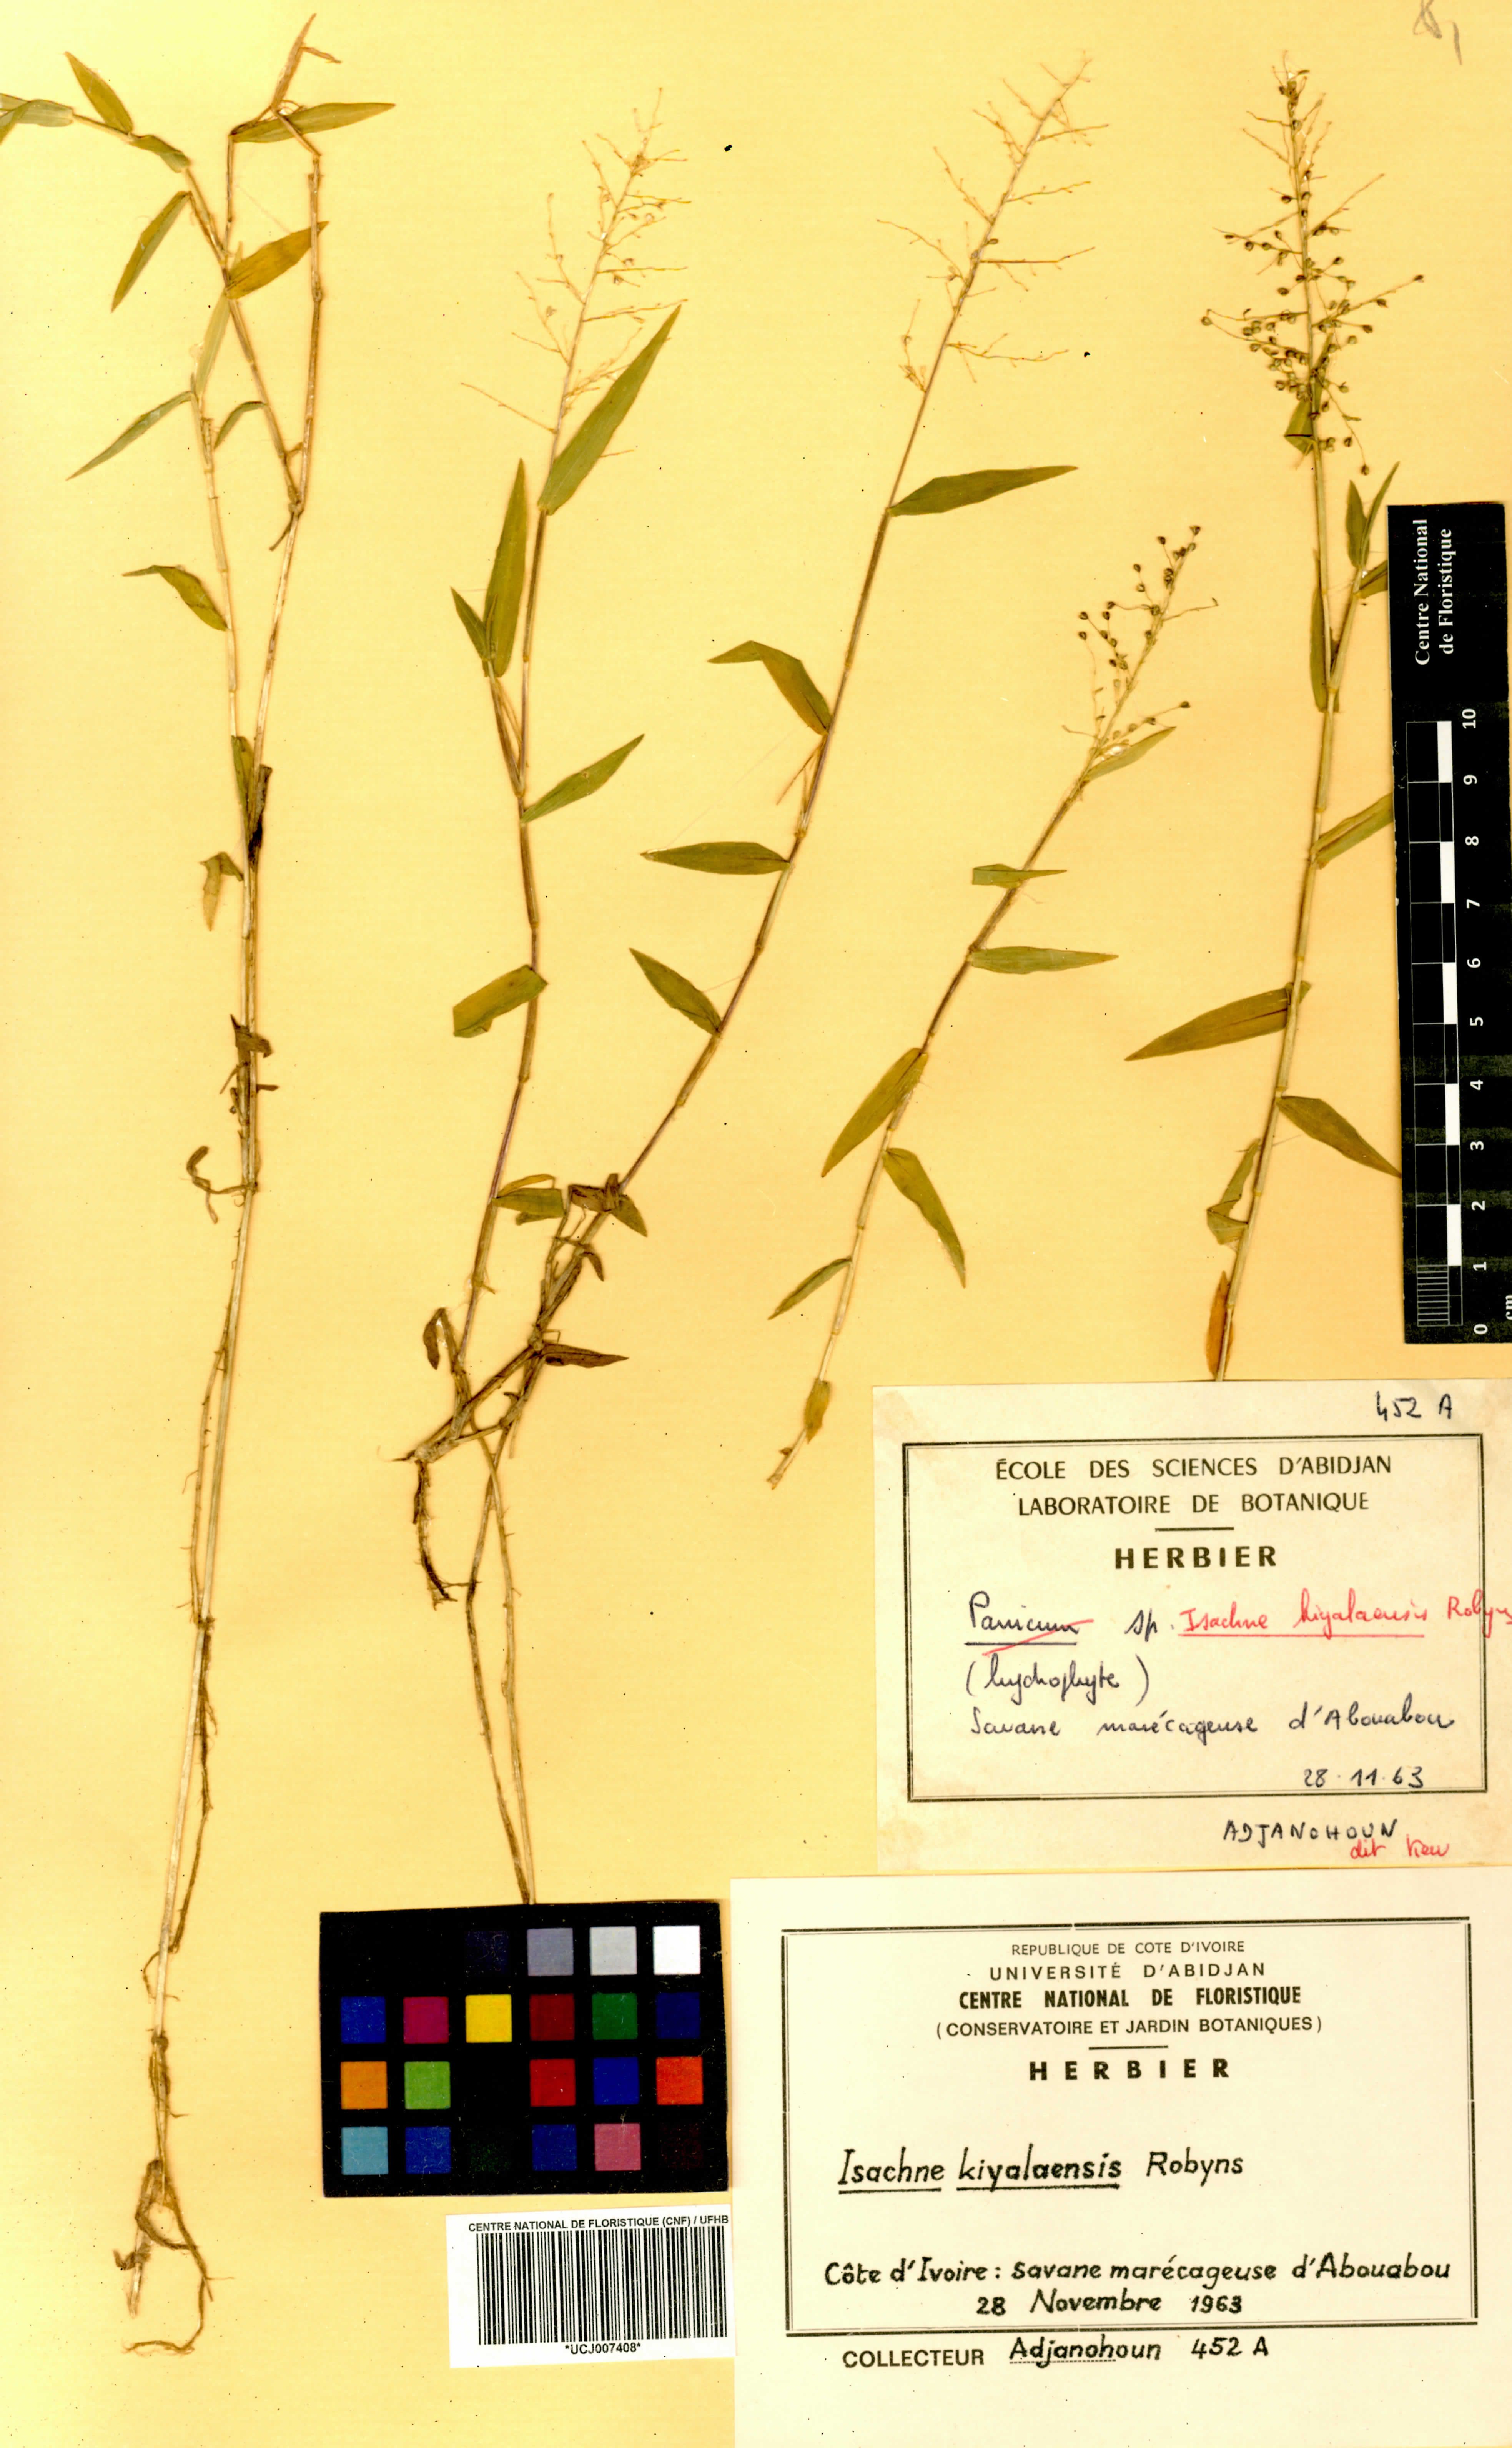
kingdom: Plantae
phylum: Tracheophyta
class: Liliopsida
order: Poales
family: Poaceae
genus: Isachne
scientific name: Isachne kiyalaensis
